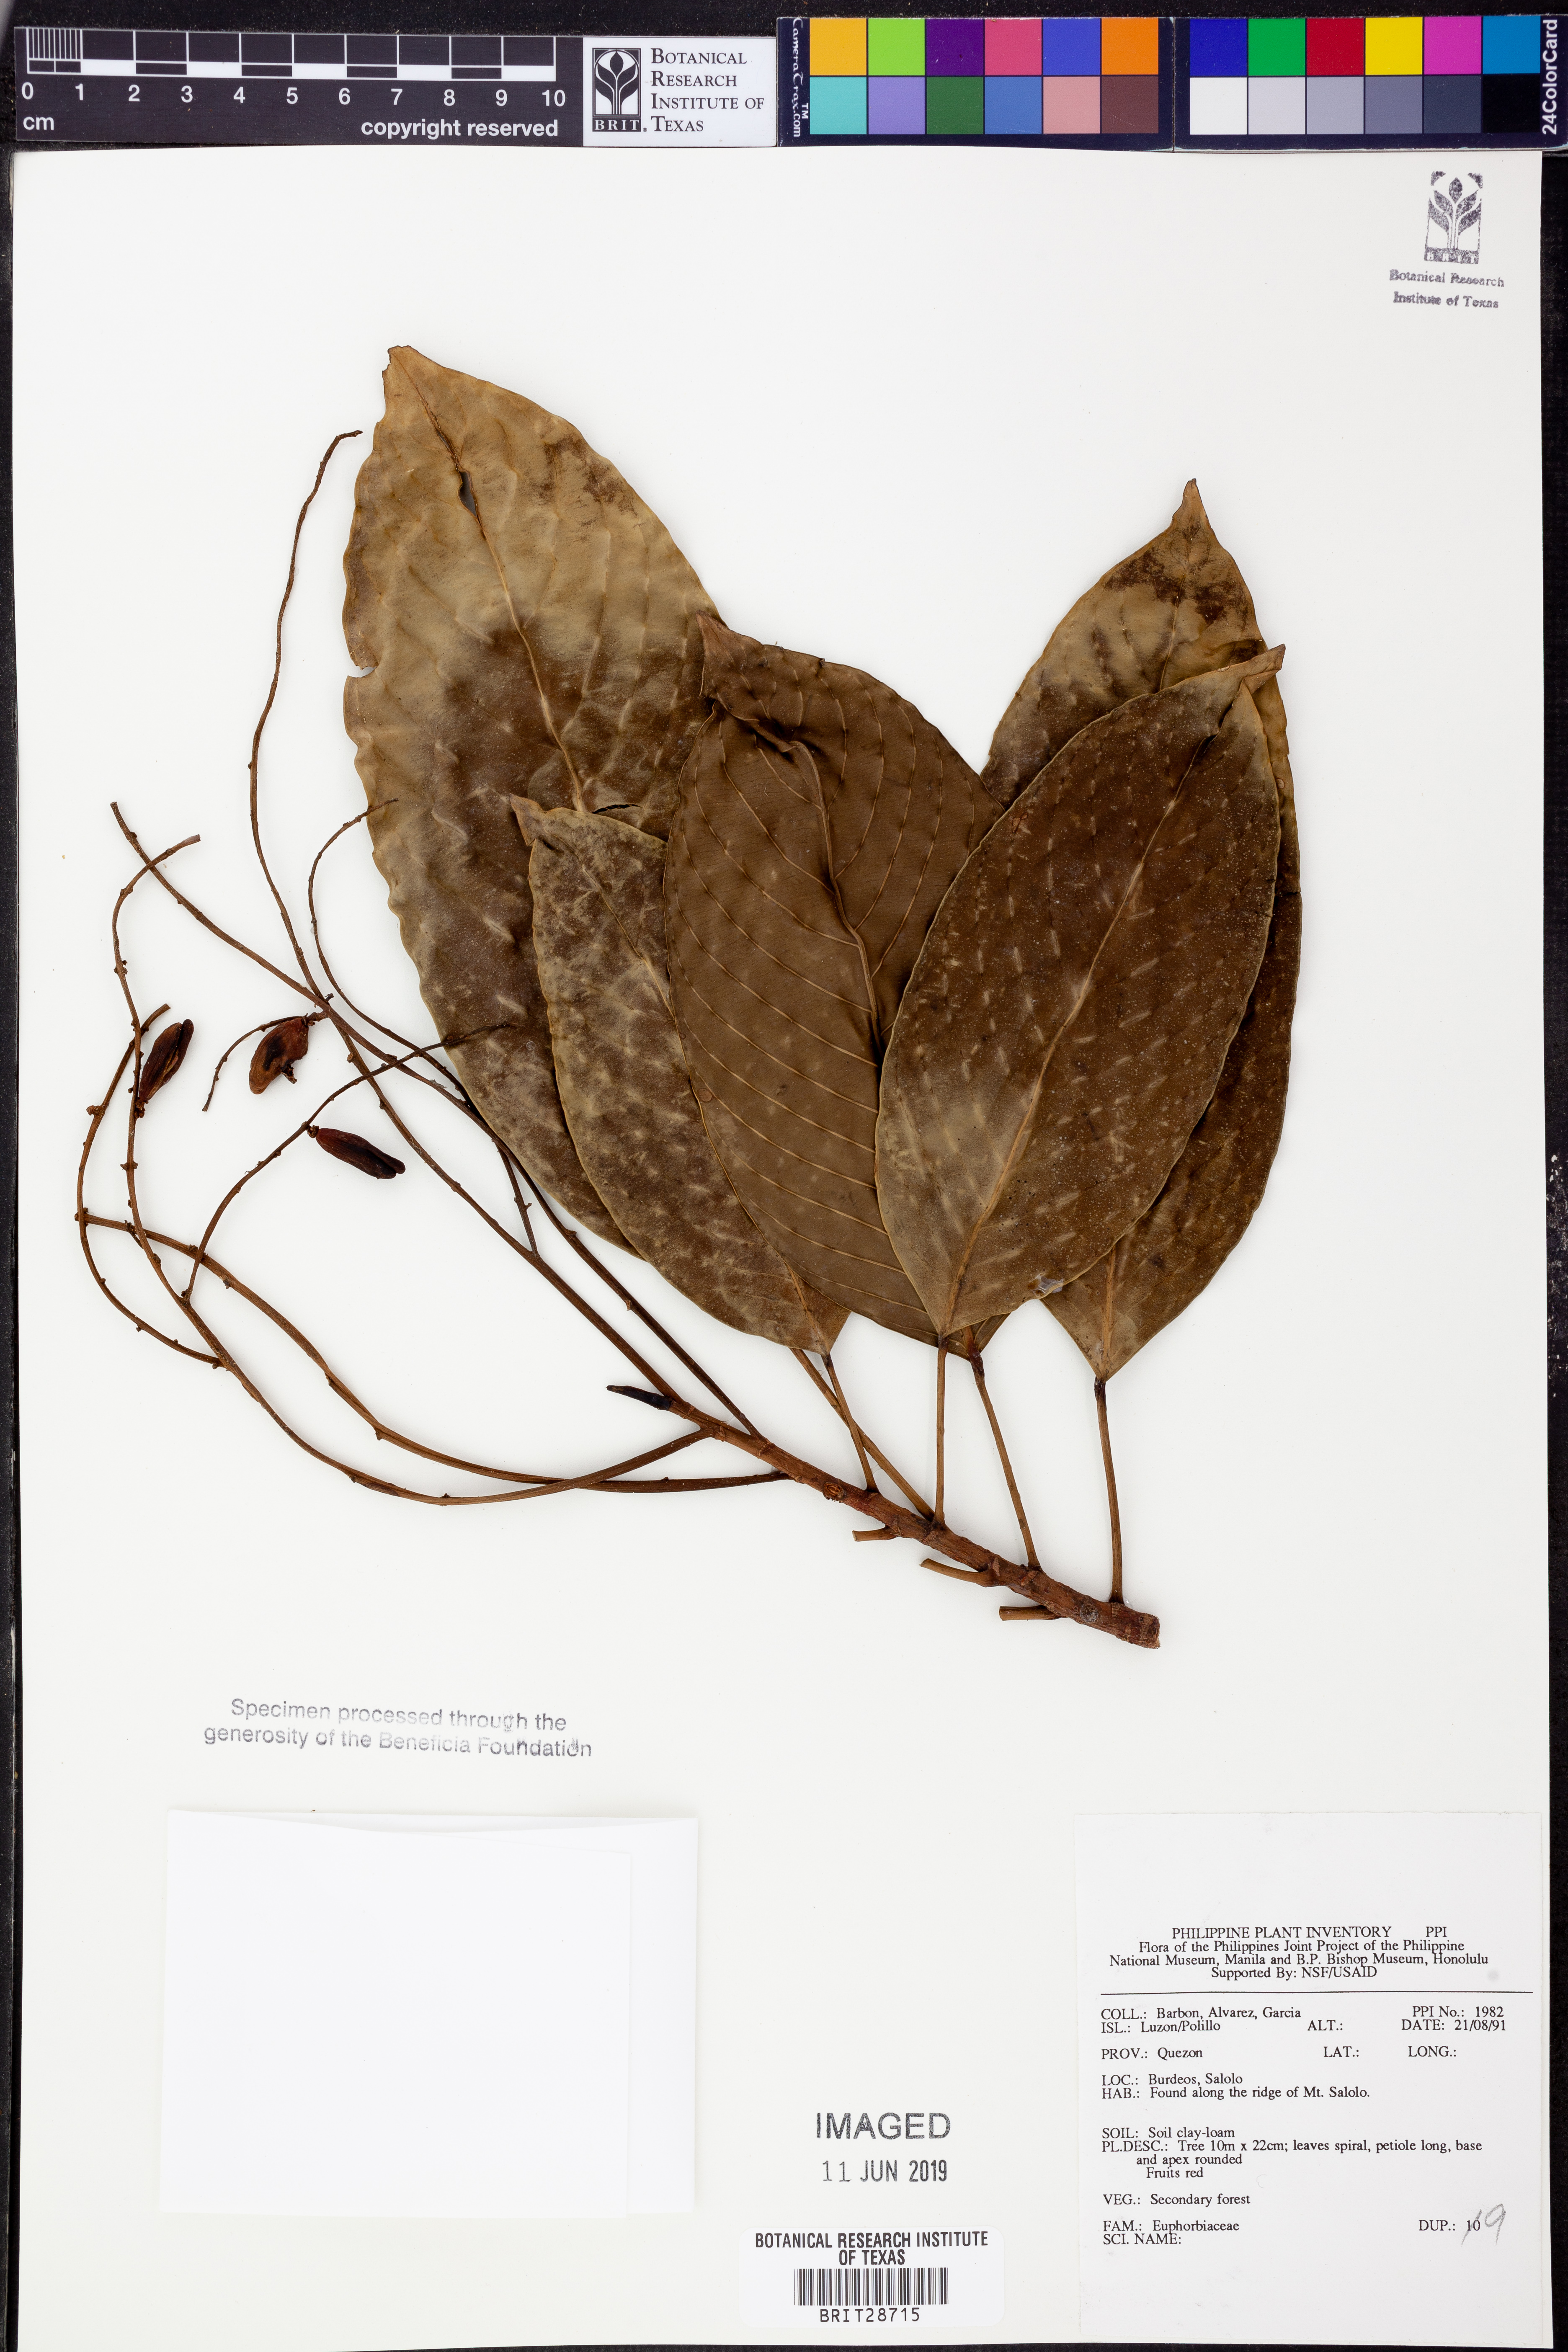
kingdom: Plantae
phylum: Tracheophyta
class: Magnoliopsida
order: Malpighiales
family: Euphorbiaceae
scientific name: Euphorbiaceae
